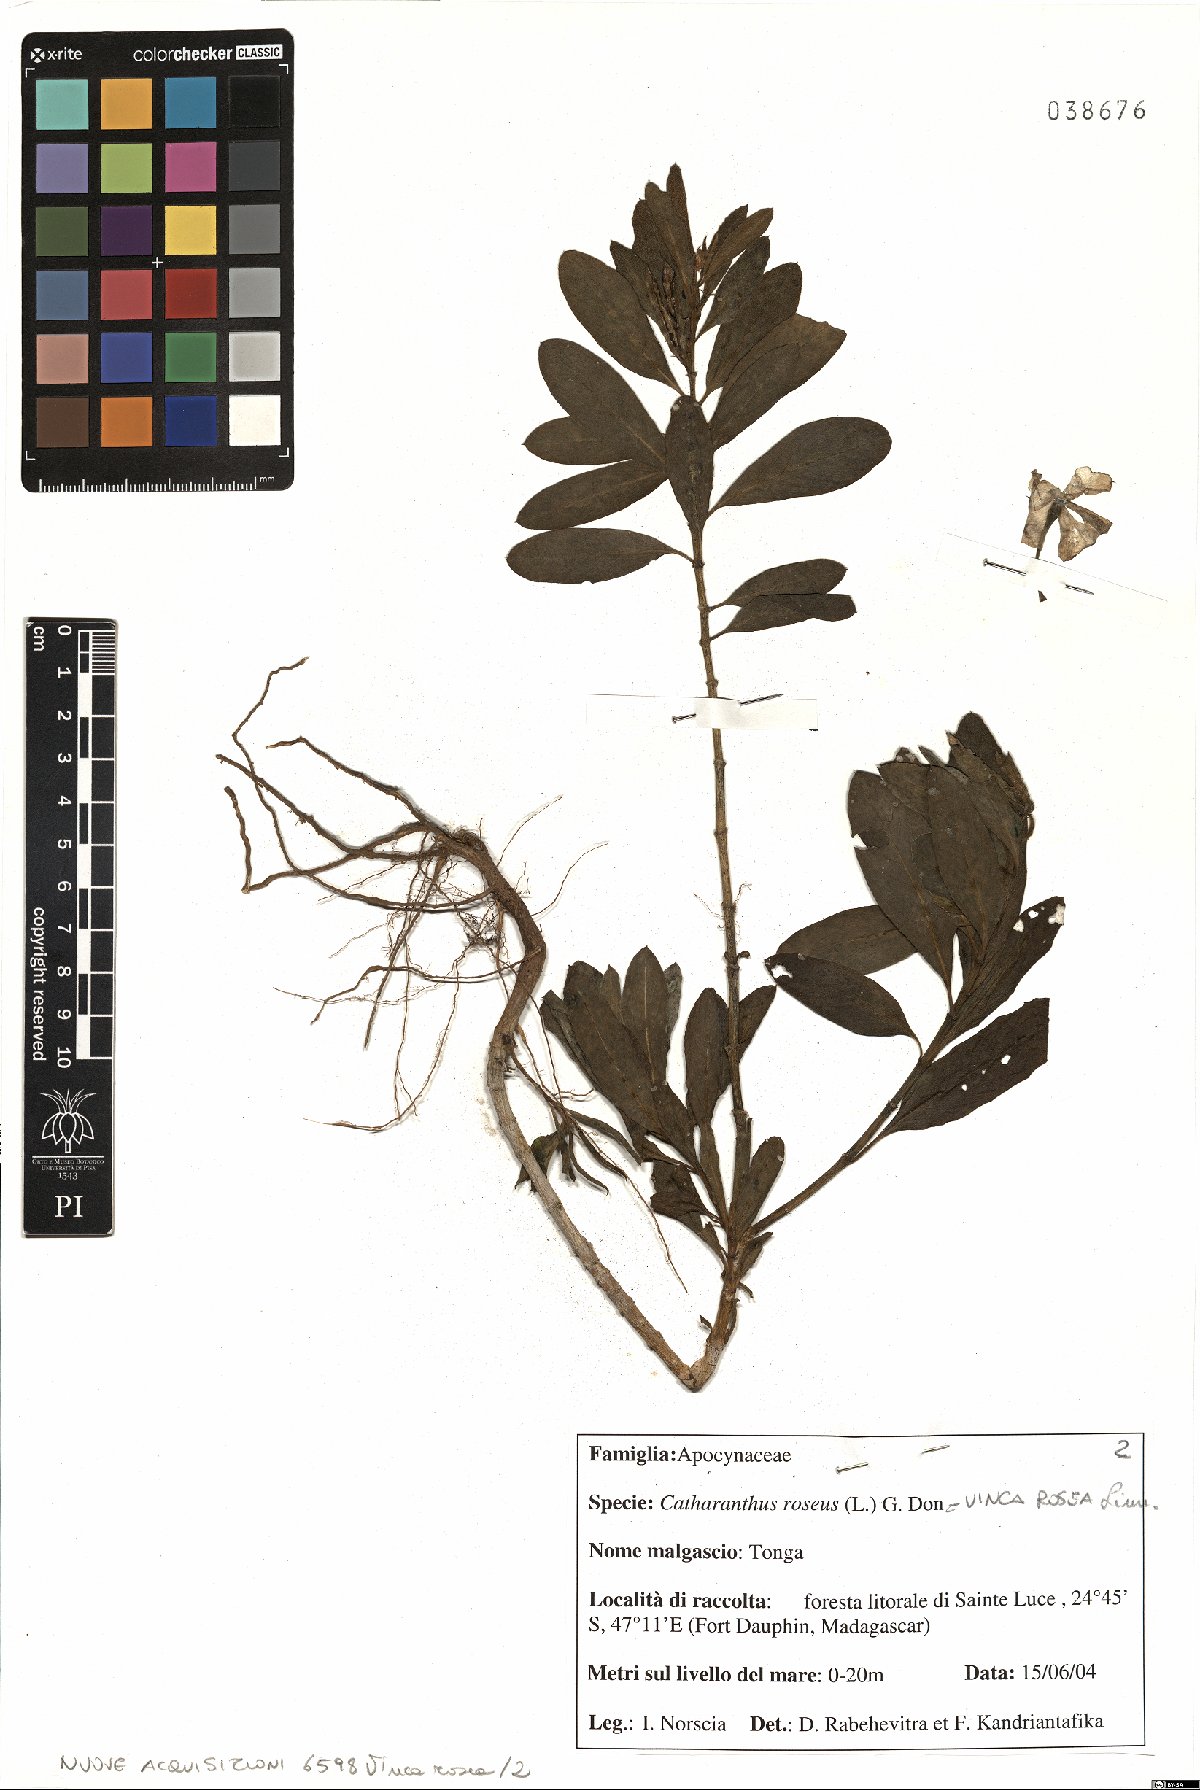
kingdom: Plantae
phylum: Tracheophyta
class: Magnoliopsida
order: Gentianales
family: Apocynaceae
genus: Catharanthus
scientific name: Catharanthus roseus
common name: Madagascar periwinkle
